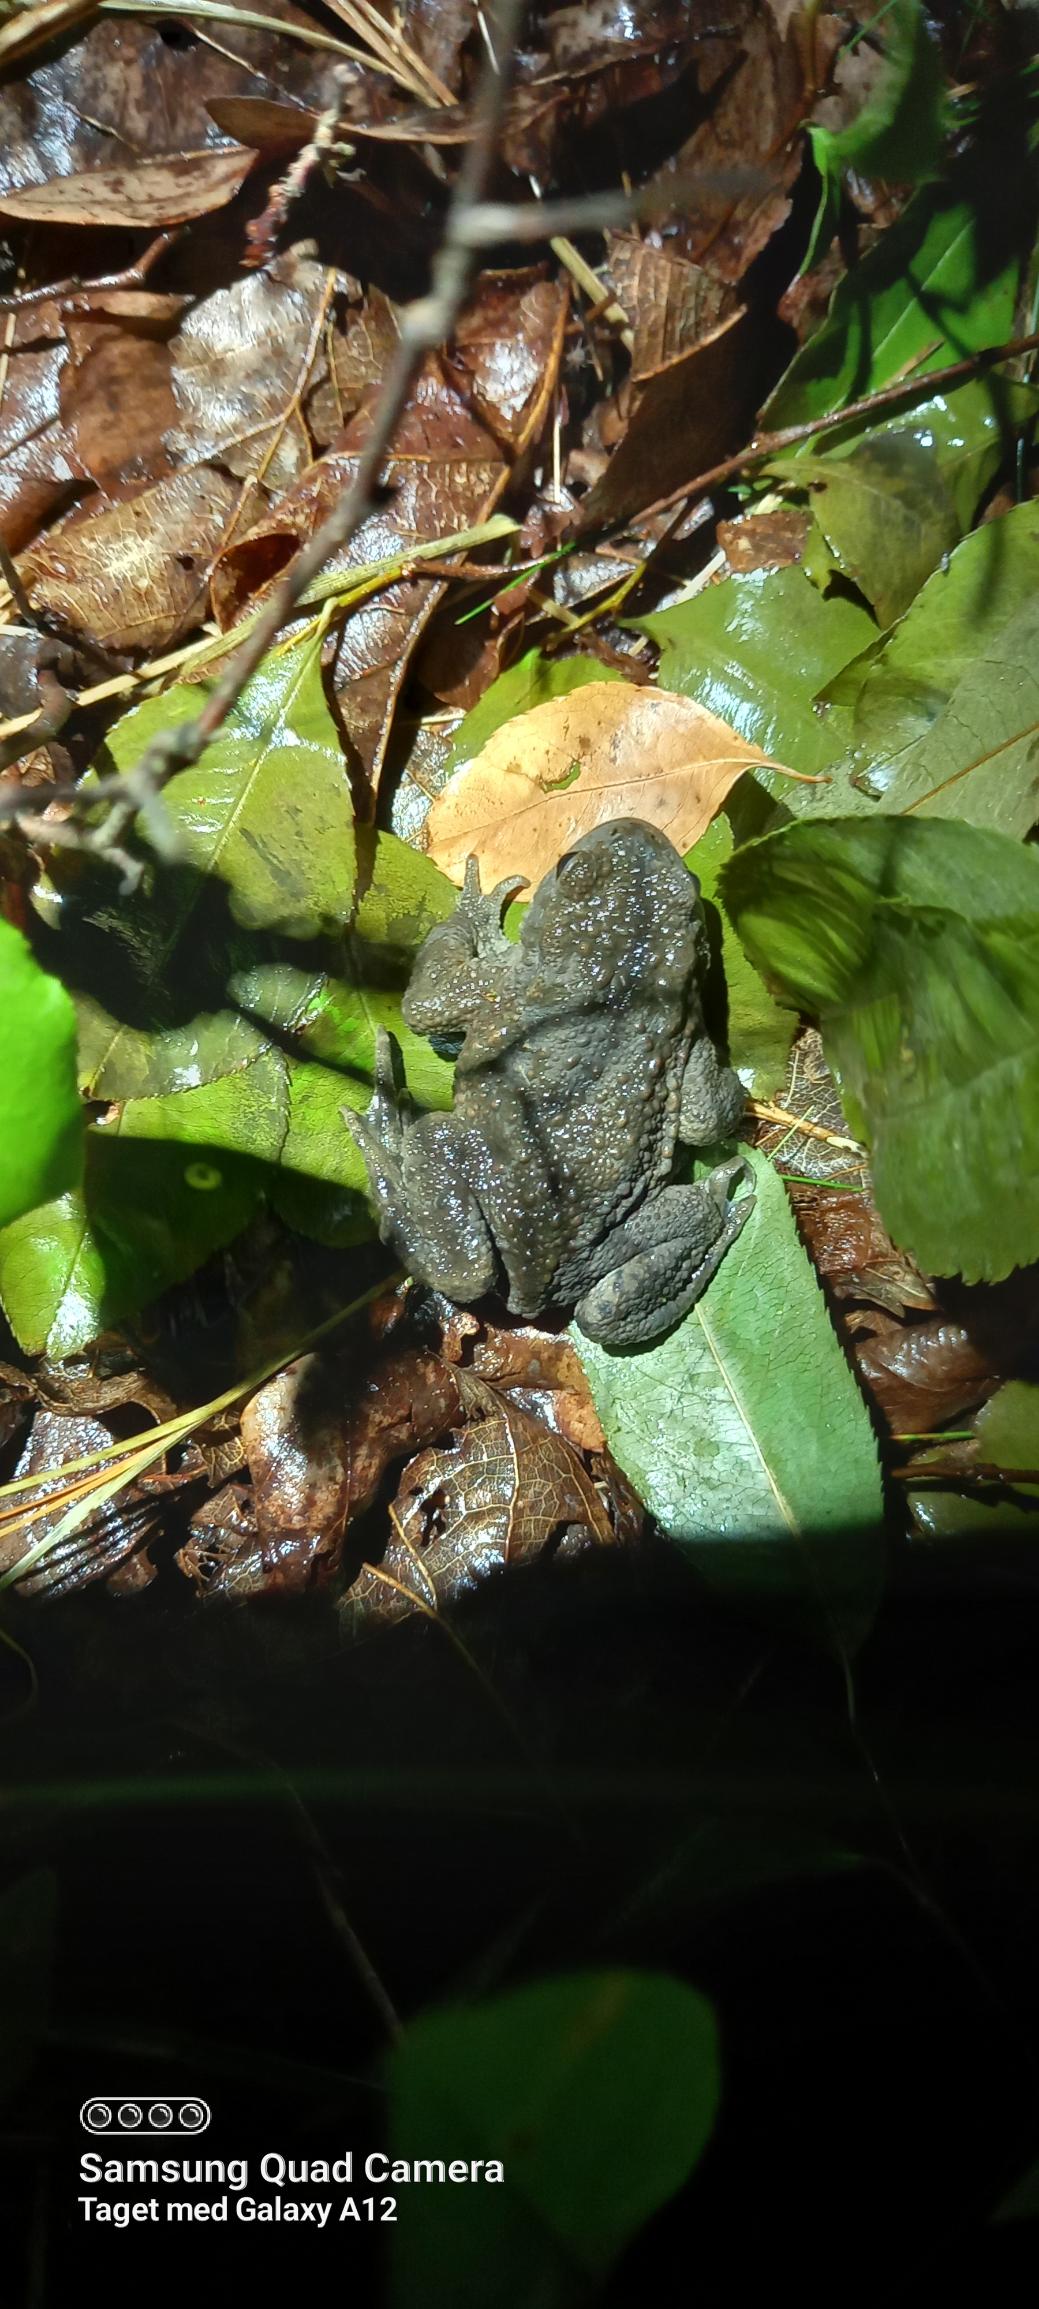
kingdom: Animalia
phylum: Chordata
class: Amphibia
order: Anura
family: Bufonidae
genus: Bufo
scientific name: Bufo bufo
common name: Skrubtudse
